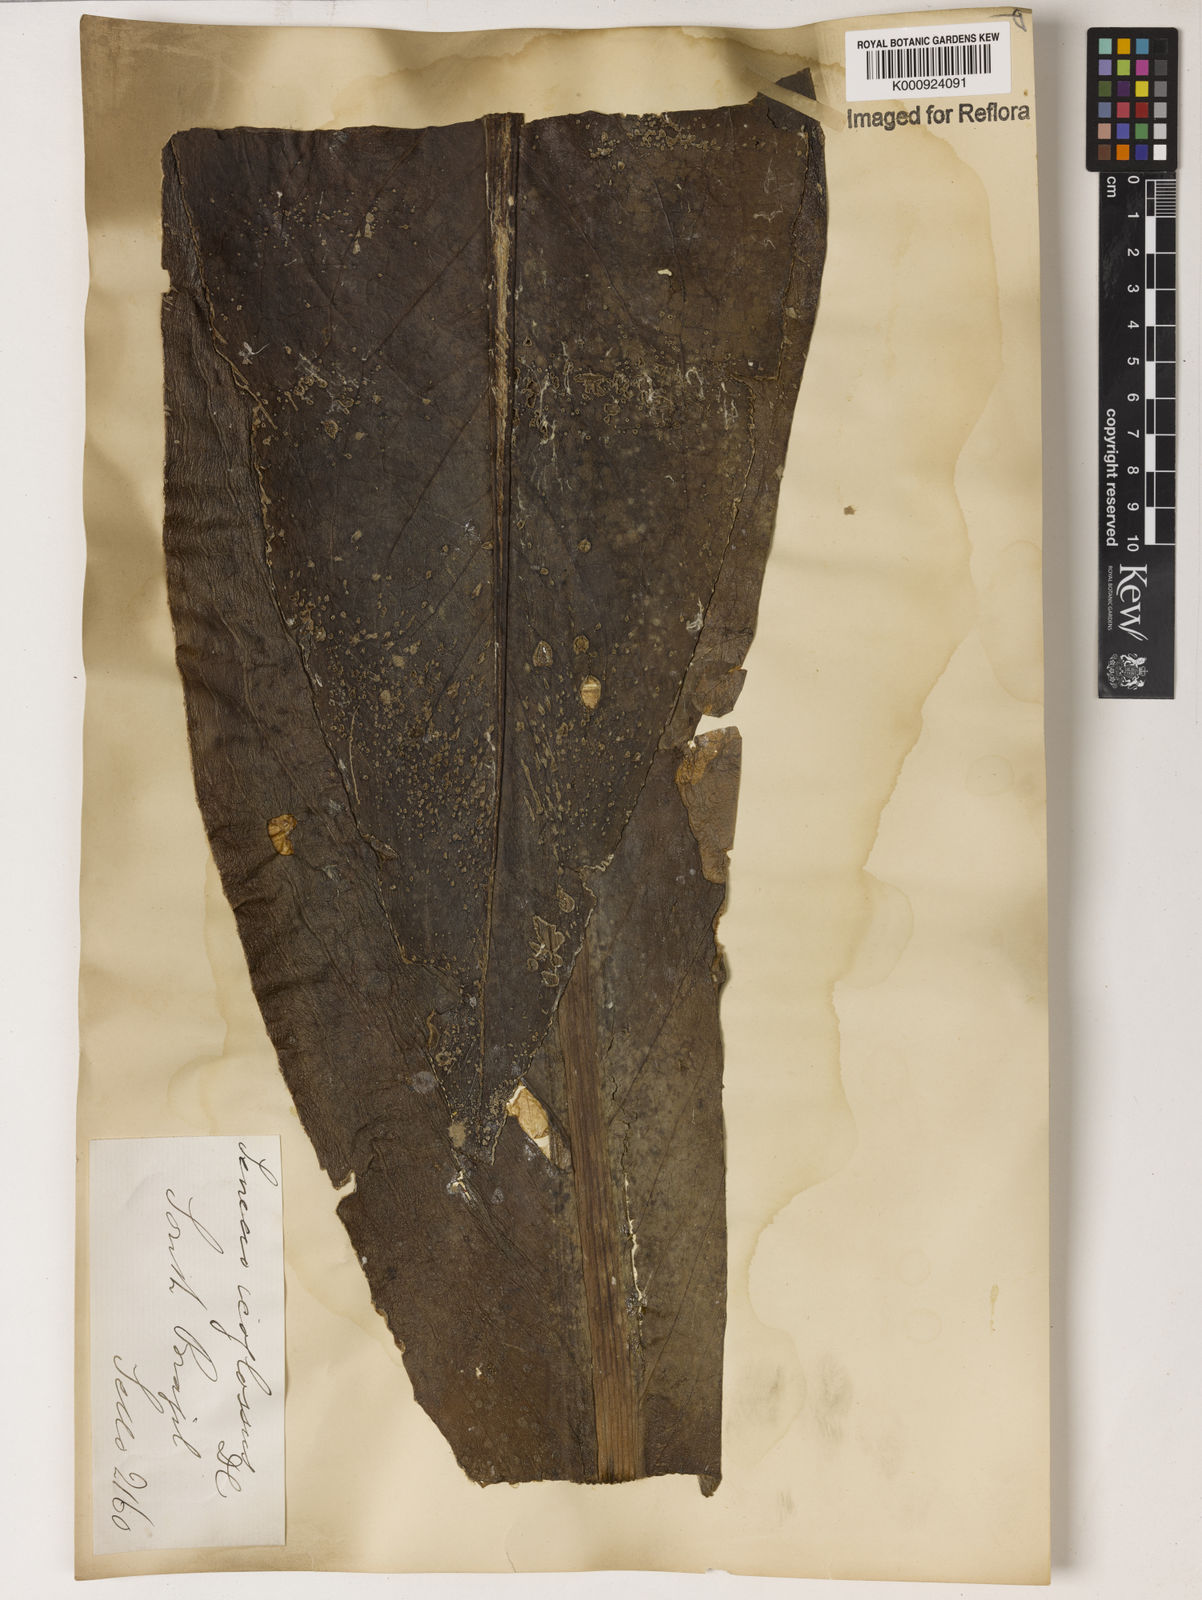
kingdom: Plantae
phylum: Tracheophyta
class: Magnoliopsida
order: Asterales
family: Asteraceae
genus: Senecio
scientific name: Senecio icoglossus
